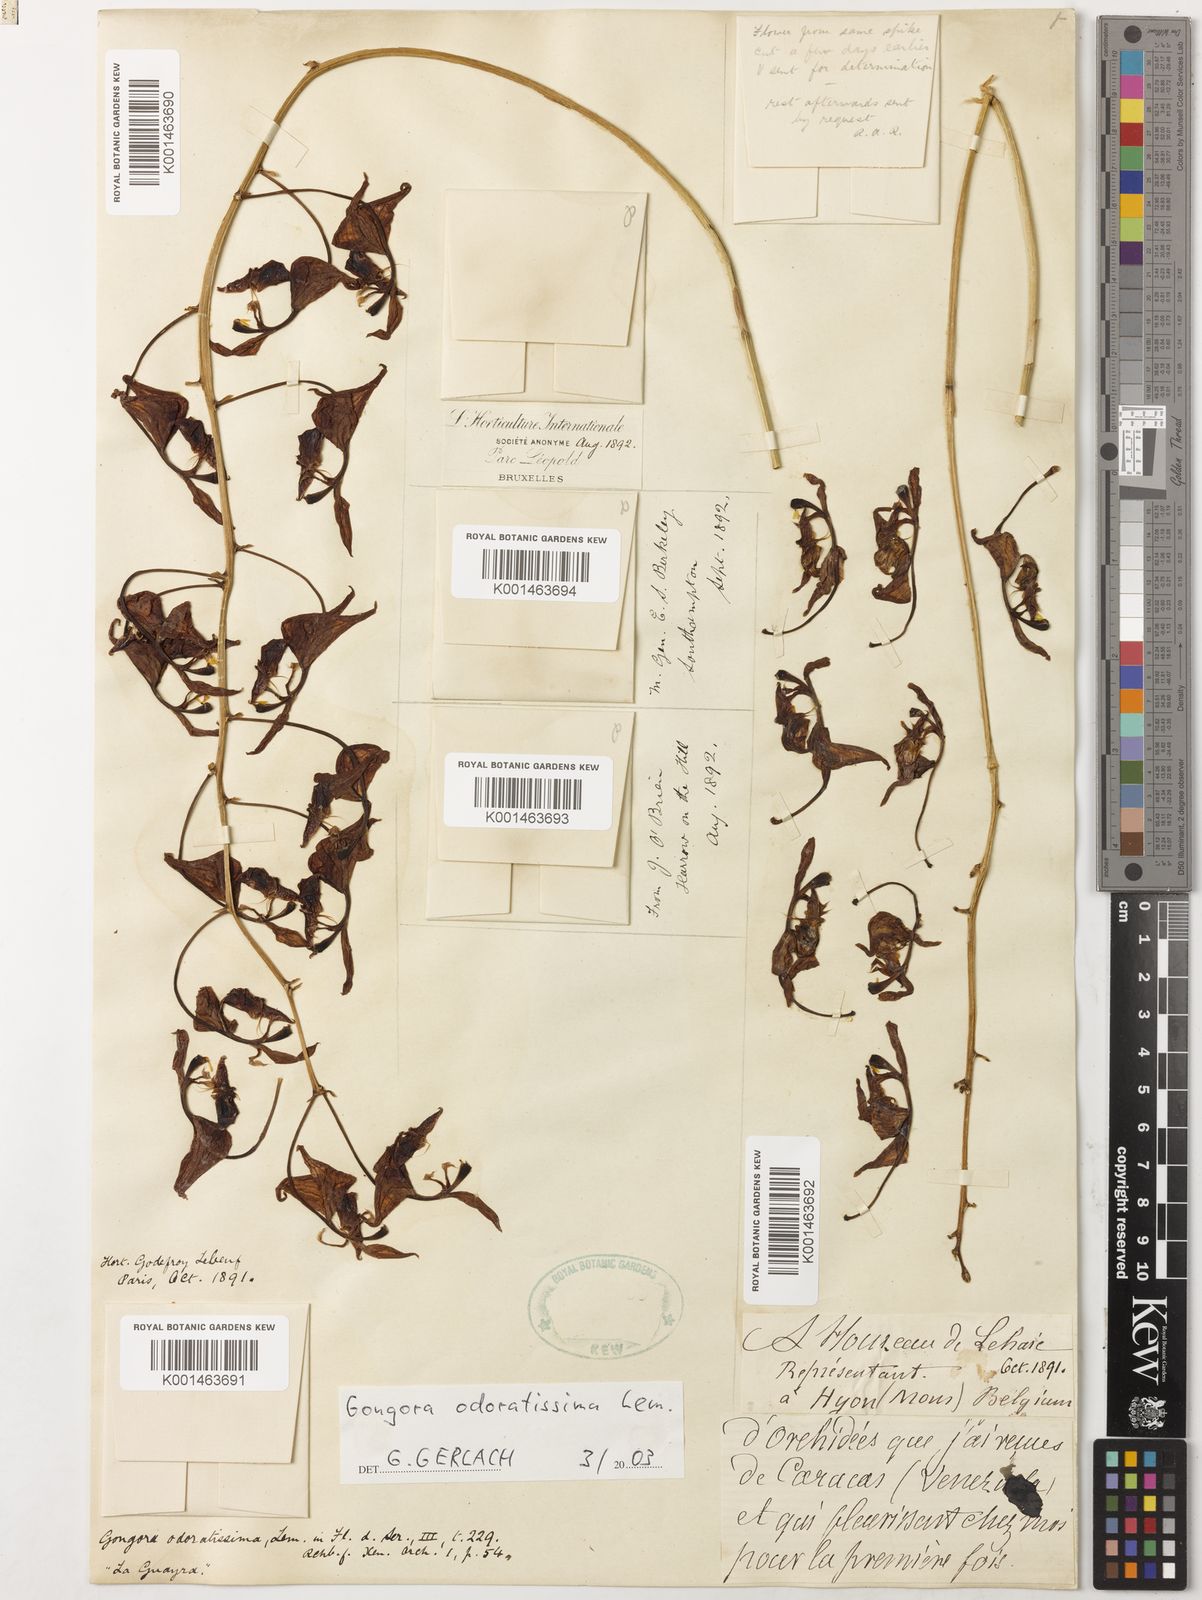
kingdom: Plantae
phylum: Tracheophyta
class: Liliopsida
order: Asparagales
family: Orchidaceae
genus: Gongora
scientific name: Gongora odoratissima
